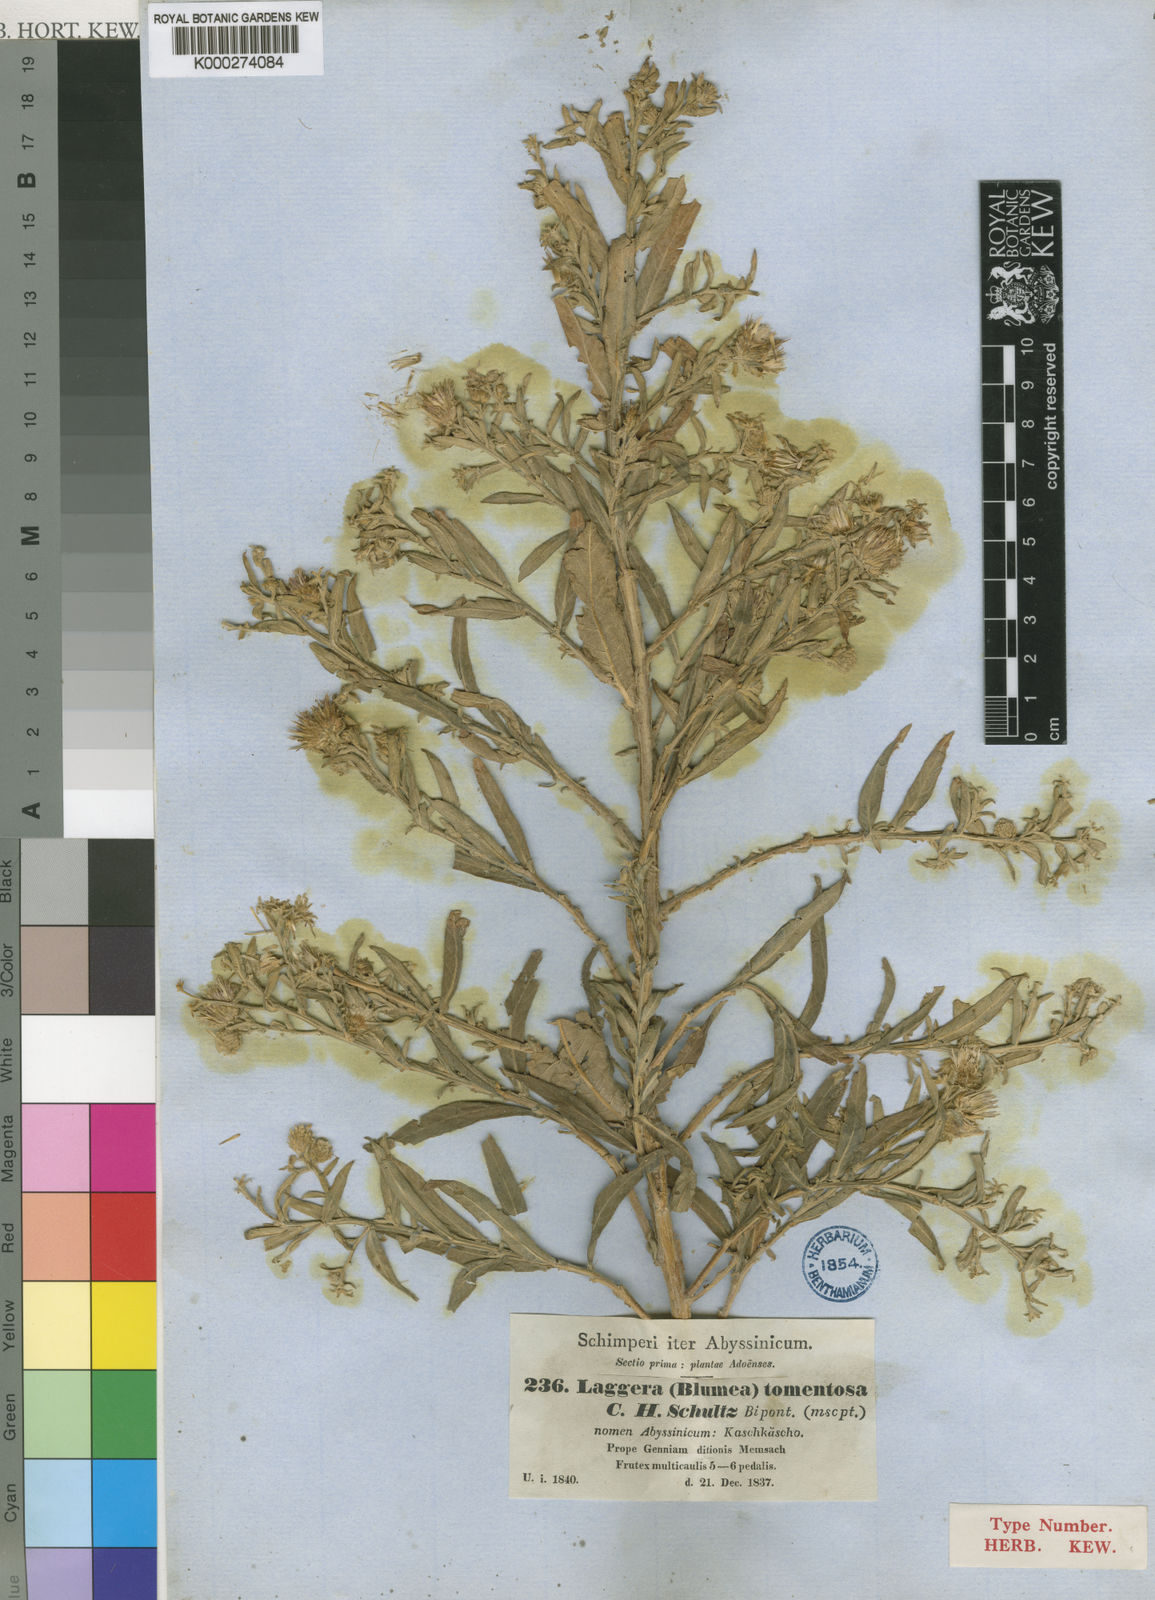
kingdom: Plantae
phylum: Tracheophyta
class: Magnoliopsida
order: Asterales
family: Asteraceae
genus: Laggera
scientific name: Laggera
